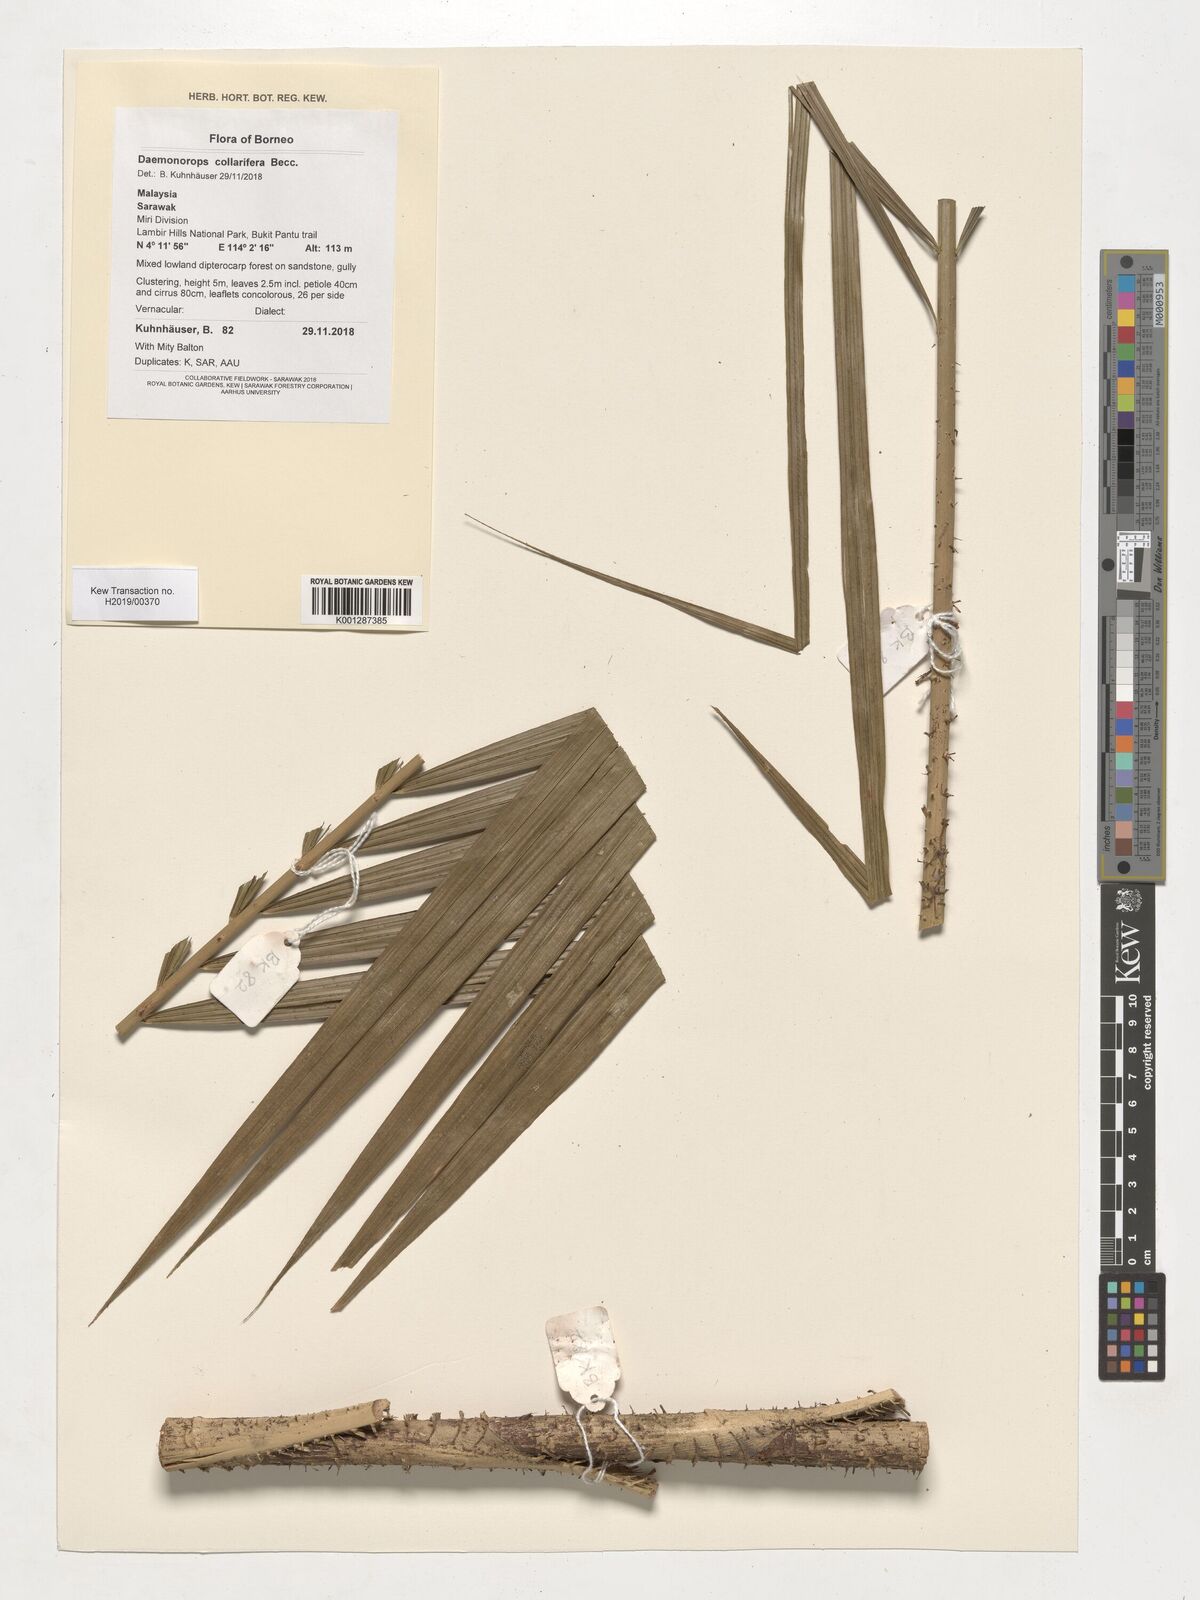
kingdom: Plantae
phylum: Tracheophyta
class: Liliopsida
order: Arecales
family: Arecaceae
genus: Calamus
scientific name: Calamus geniculatus
